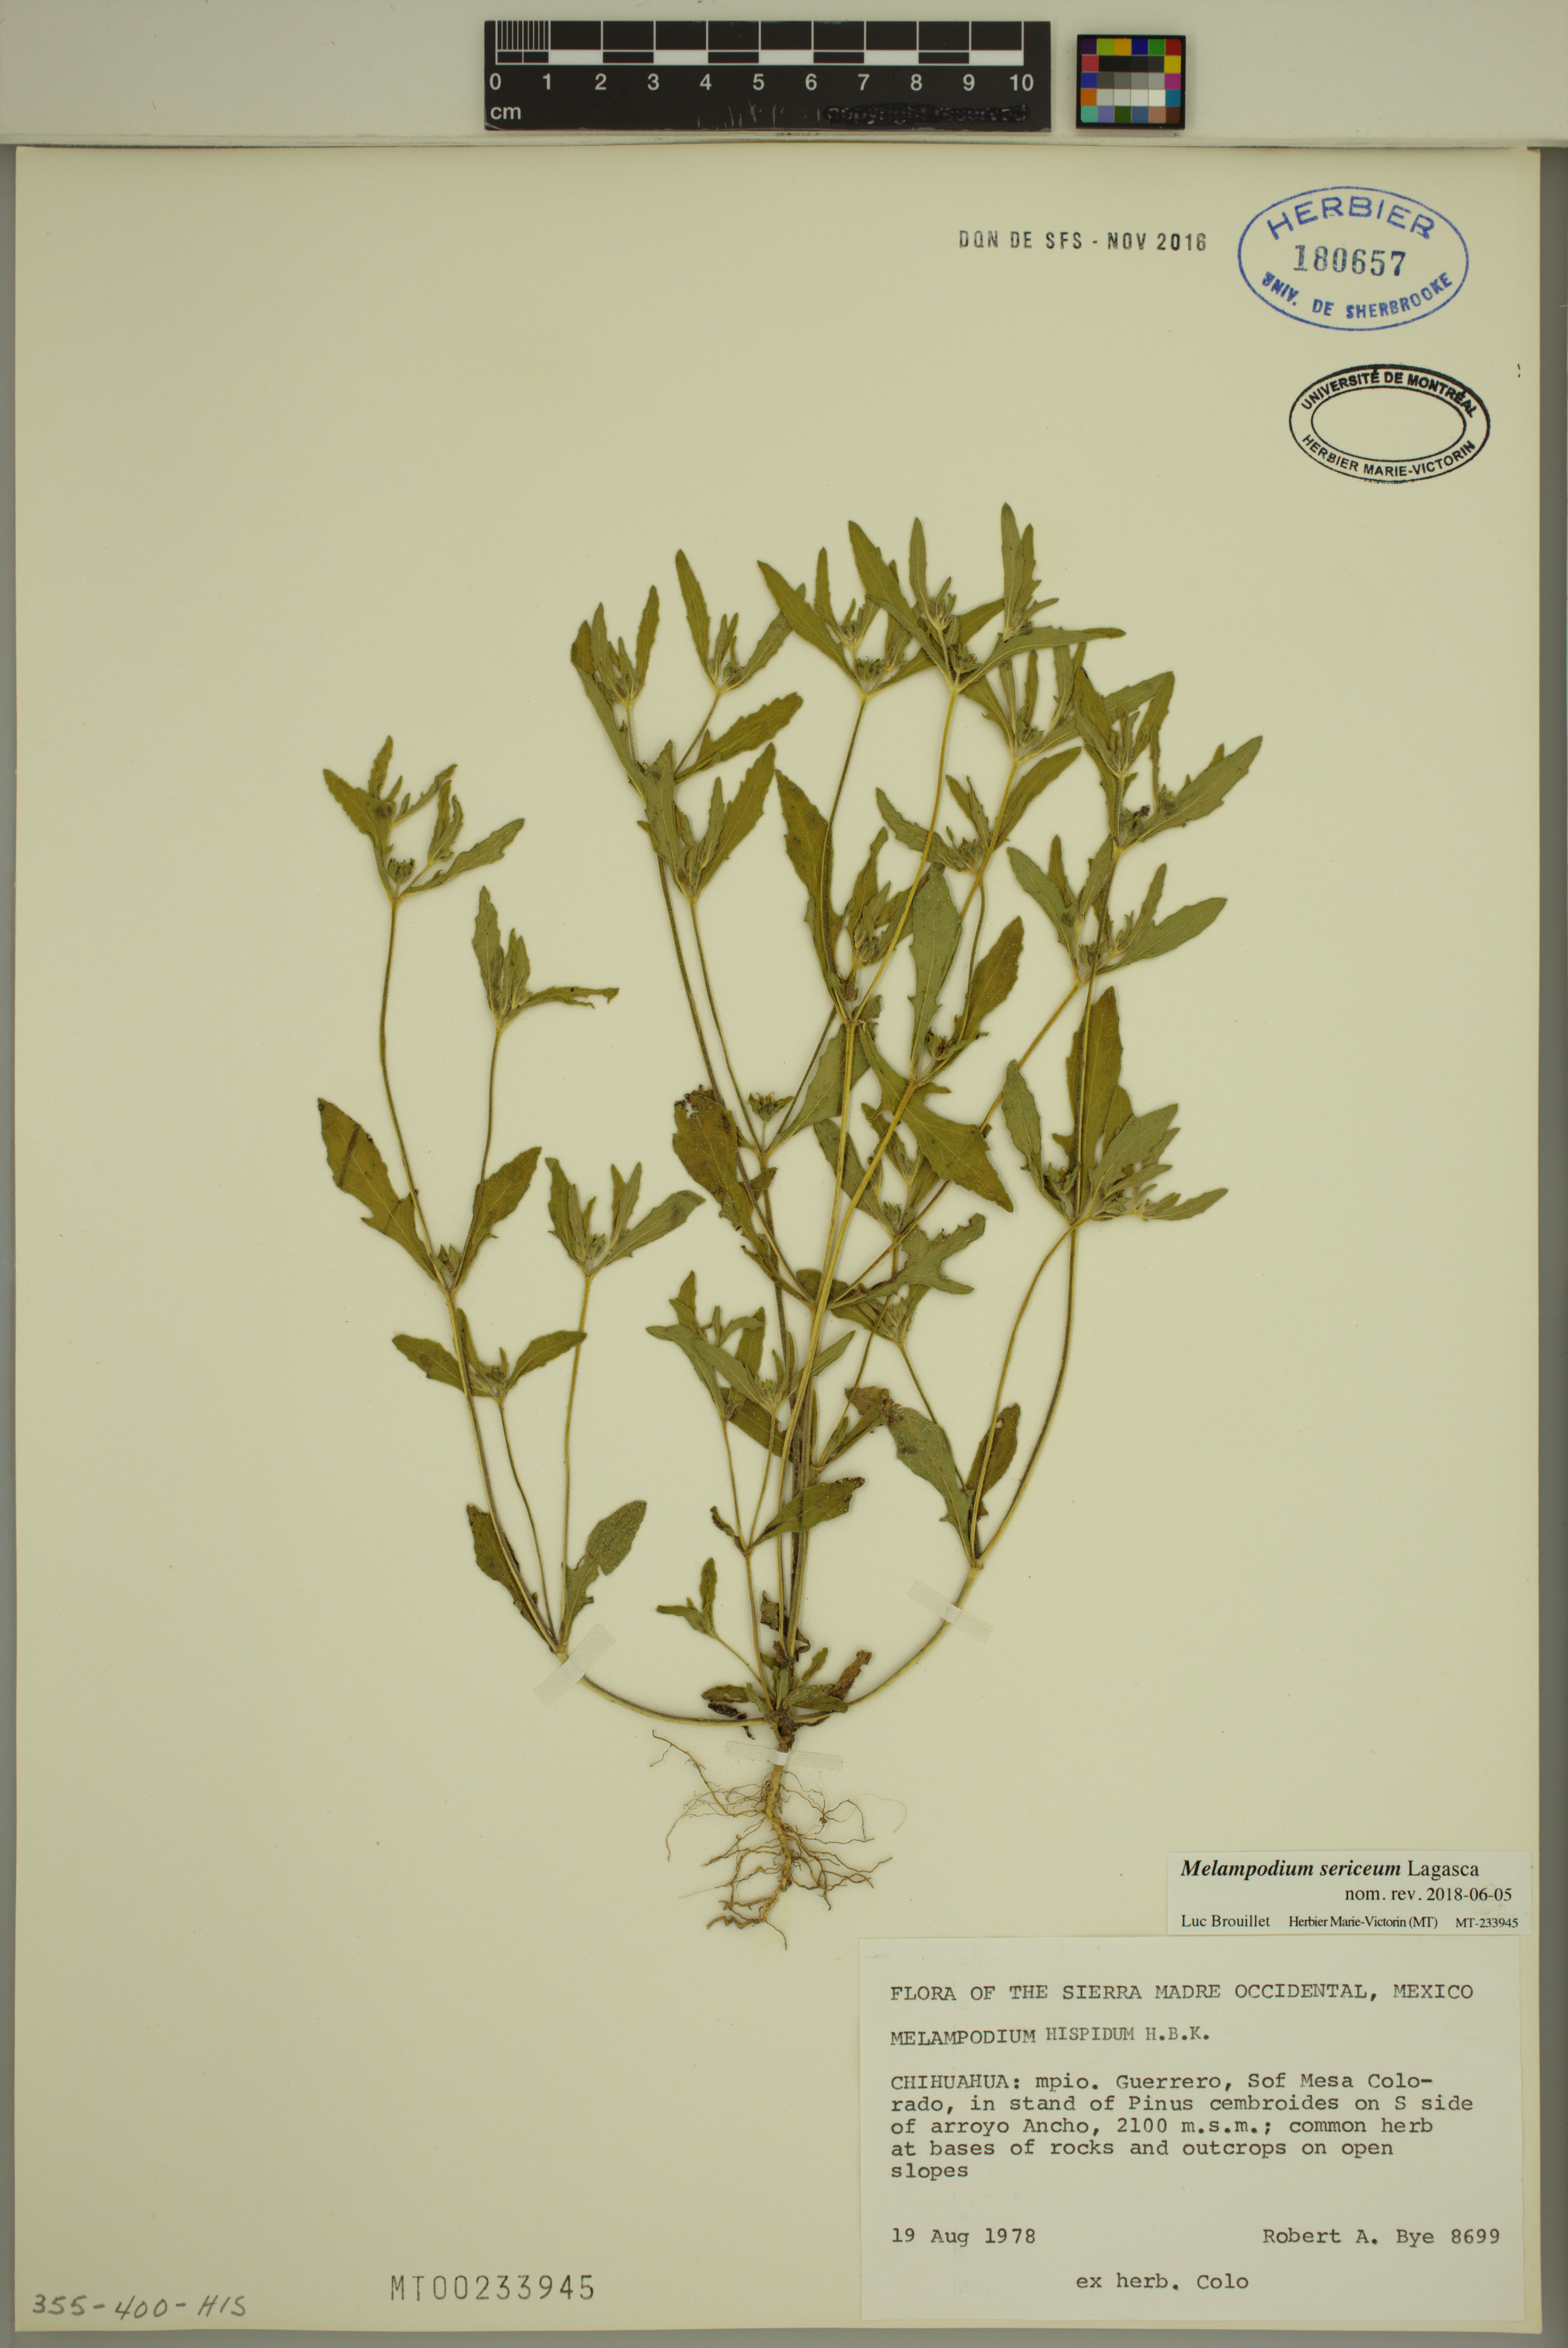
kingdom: Plantae
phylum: Tracheophyta
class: Magnoliopsida
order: Asterales
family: Asteraceae
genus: Melampodium
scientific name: Melampodium sericeum
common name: Rough blackfoot
